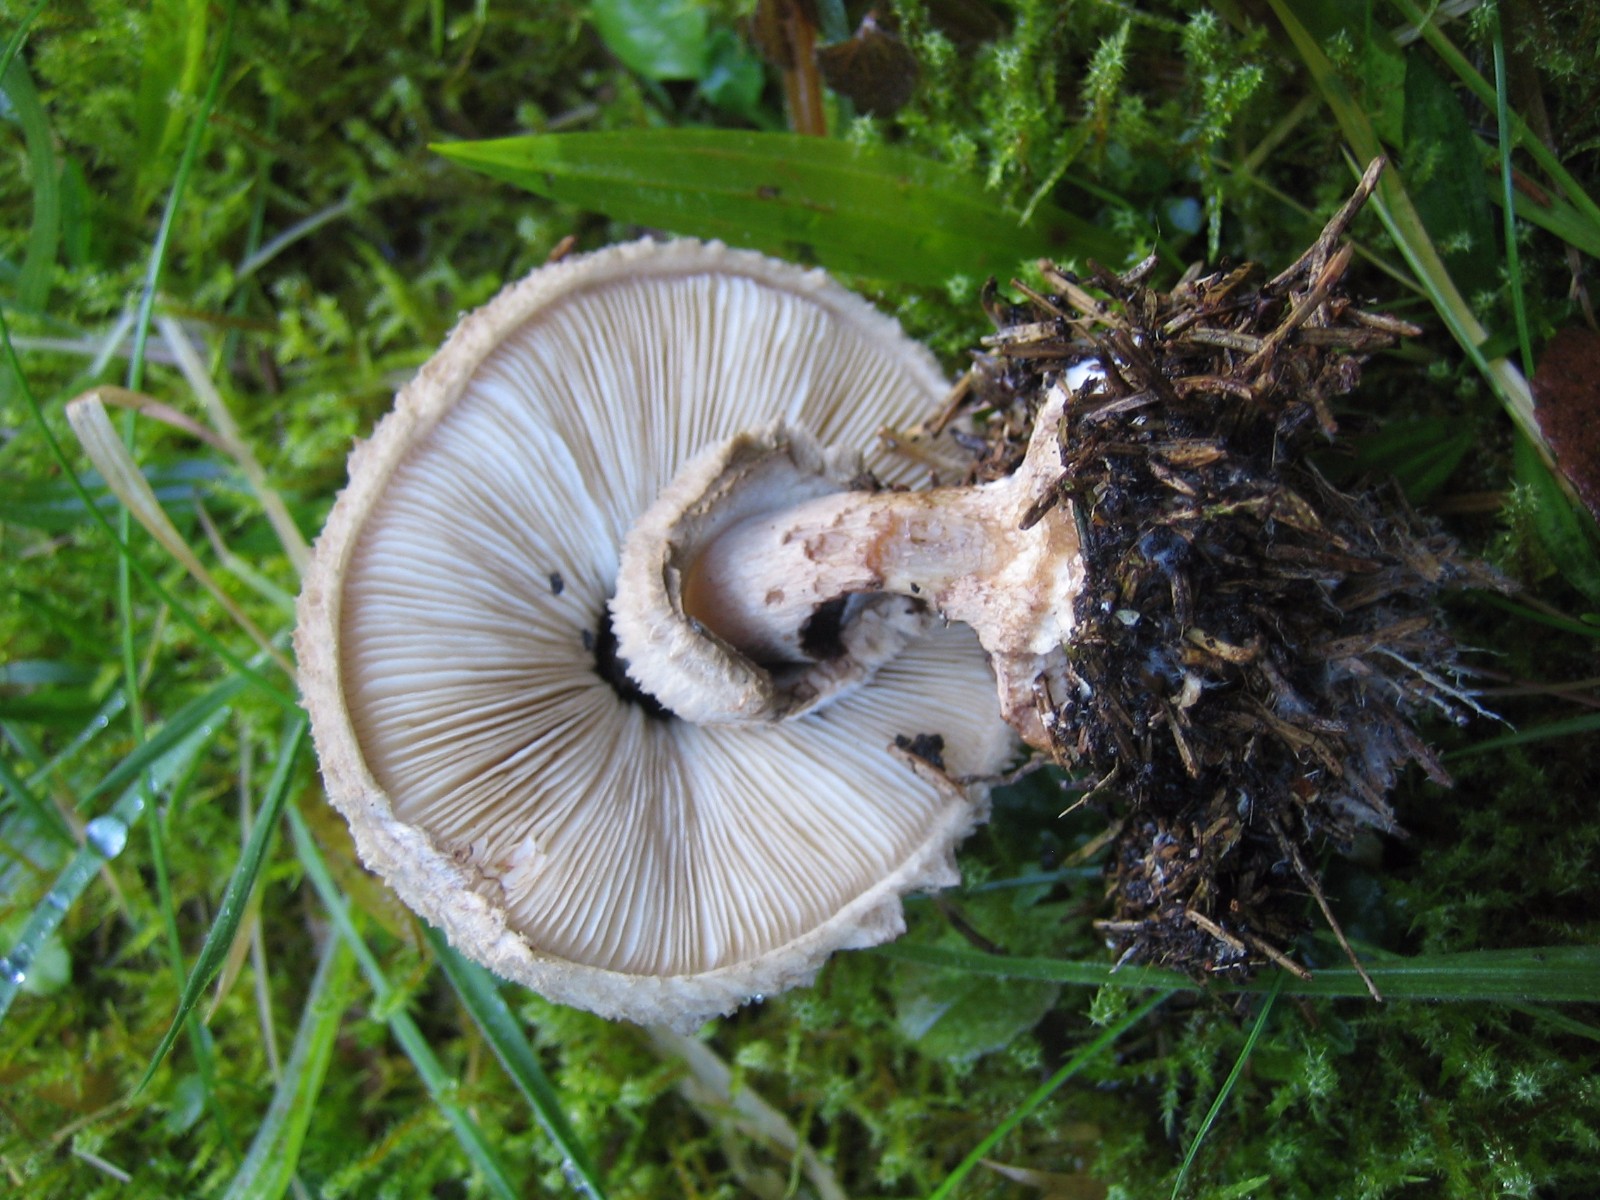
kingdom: Fungi
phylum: Basidiomycota
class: Agaricomycetes
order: Agaricales
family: Agaricaceae
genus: Chlorophyllum
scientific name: Chlorophyllum olivieri
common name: almindelig rabarberhat
